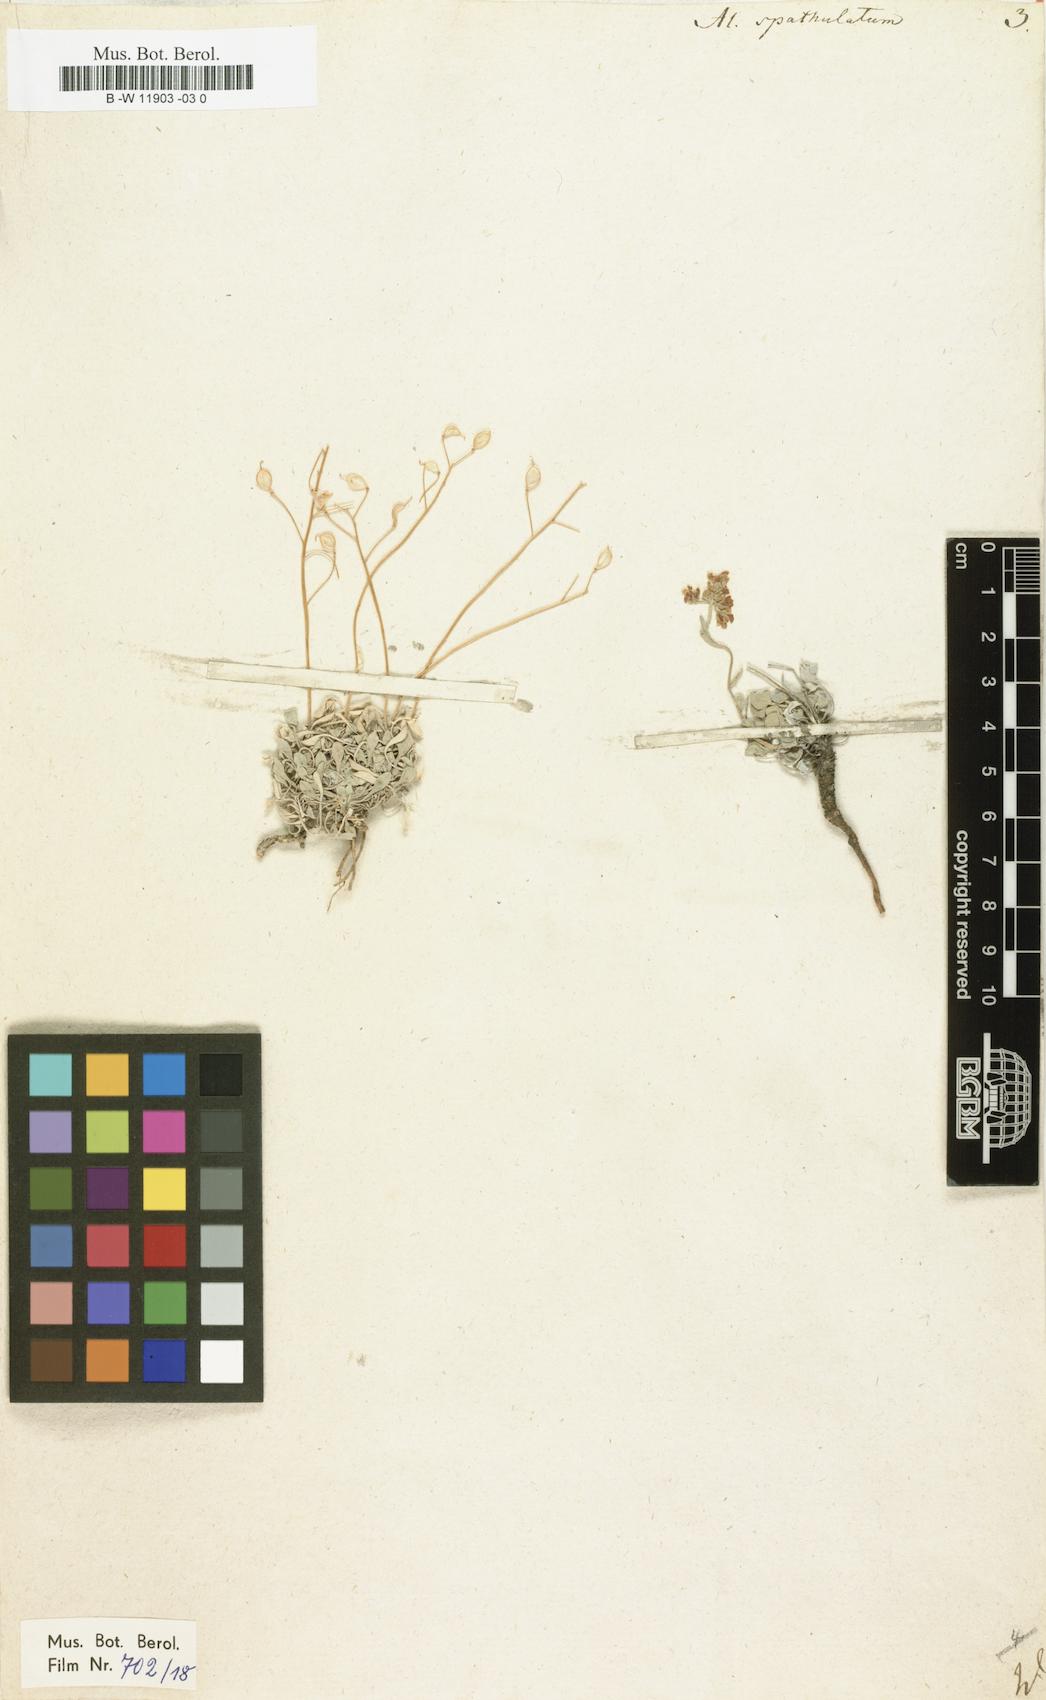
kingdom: Plantae
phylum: Tracheophyta
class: Magnoliopsida
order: Brassicales
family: Brassicaceae
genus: Galitzkya
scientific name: Galitzkya spathulata
